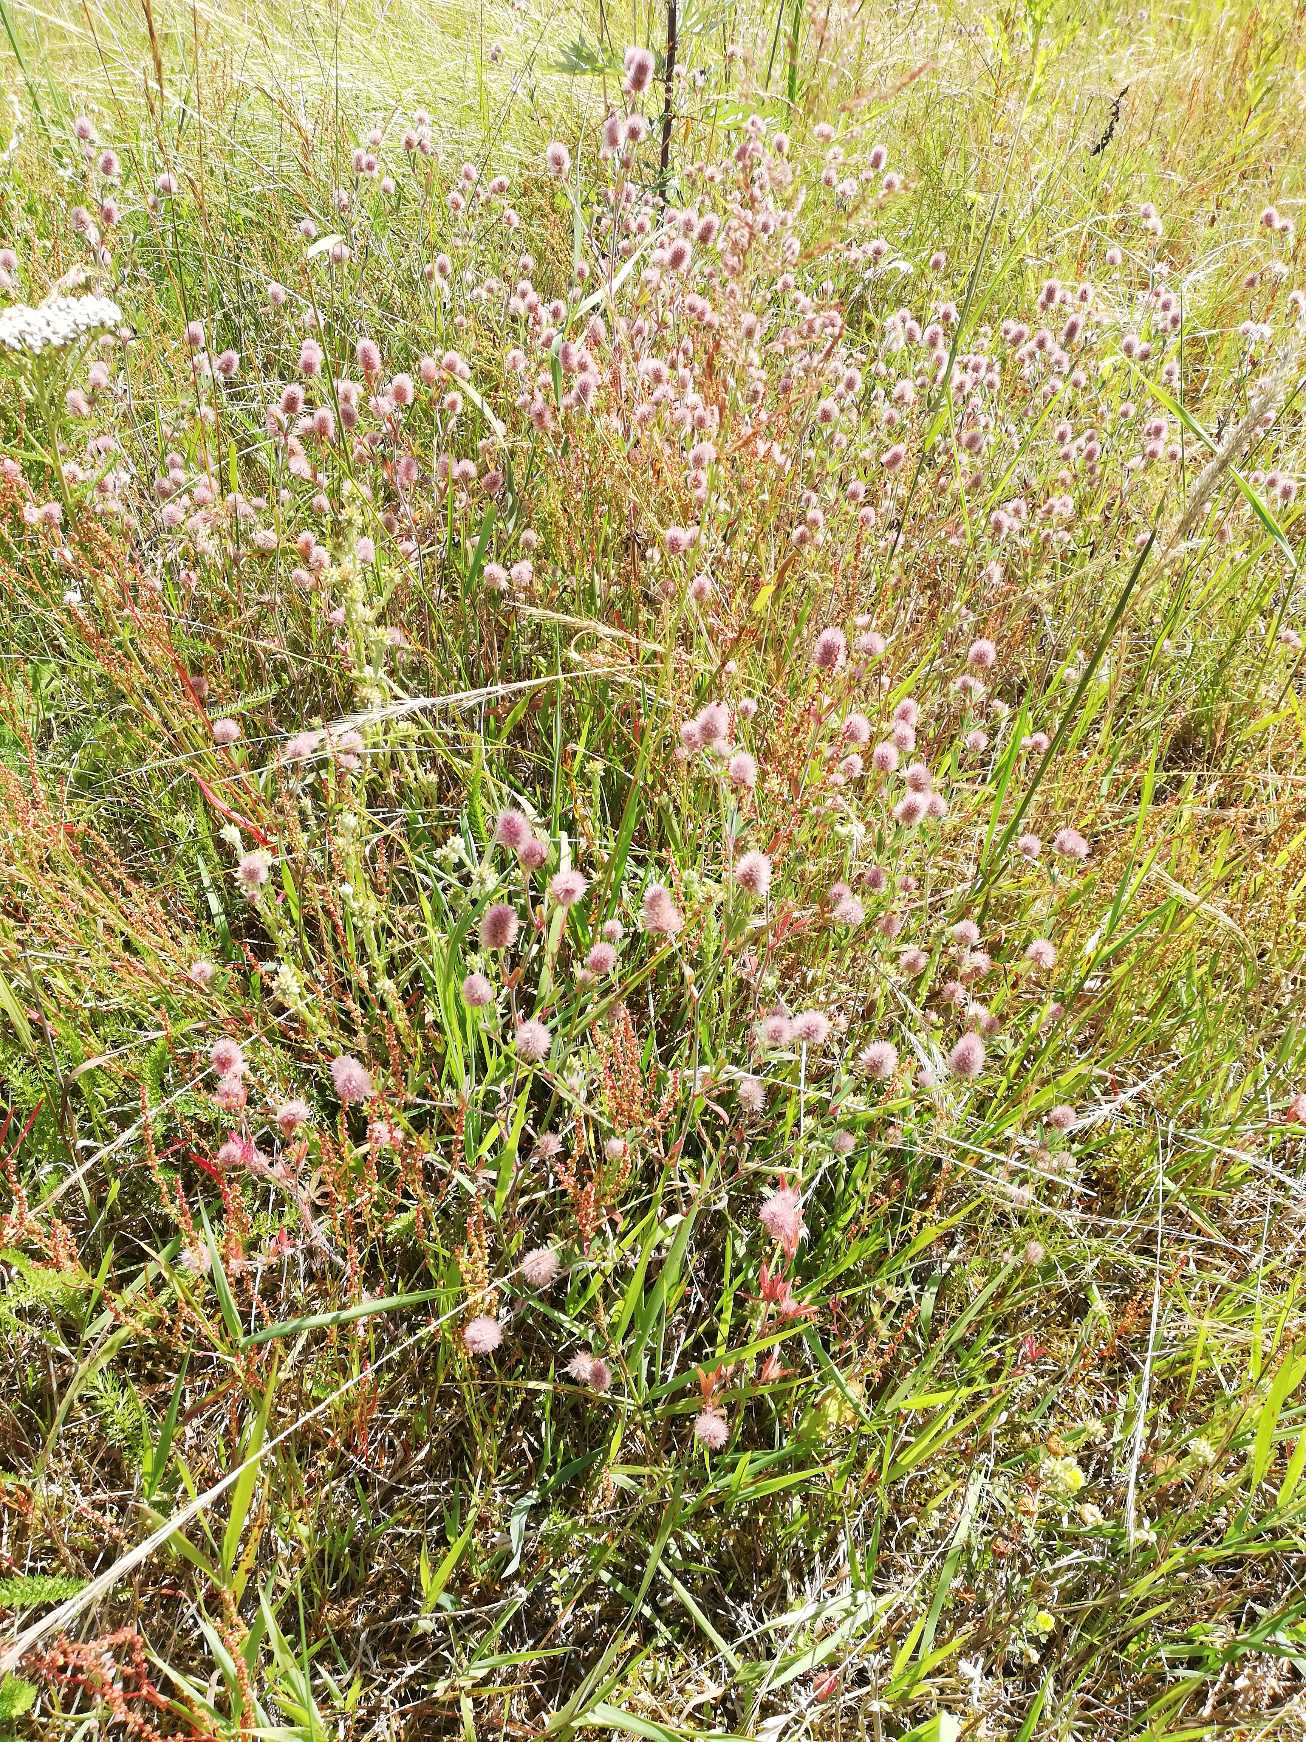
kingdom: Plantae
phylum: Tracheophyta
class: Magnoliopsida
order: Fabales
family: Fabaceae
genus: Trifolium
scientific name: Trifolium arvense
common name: Hare-kløver
